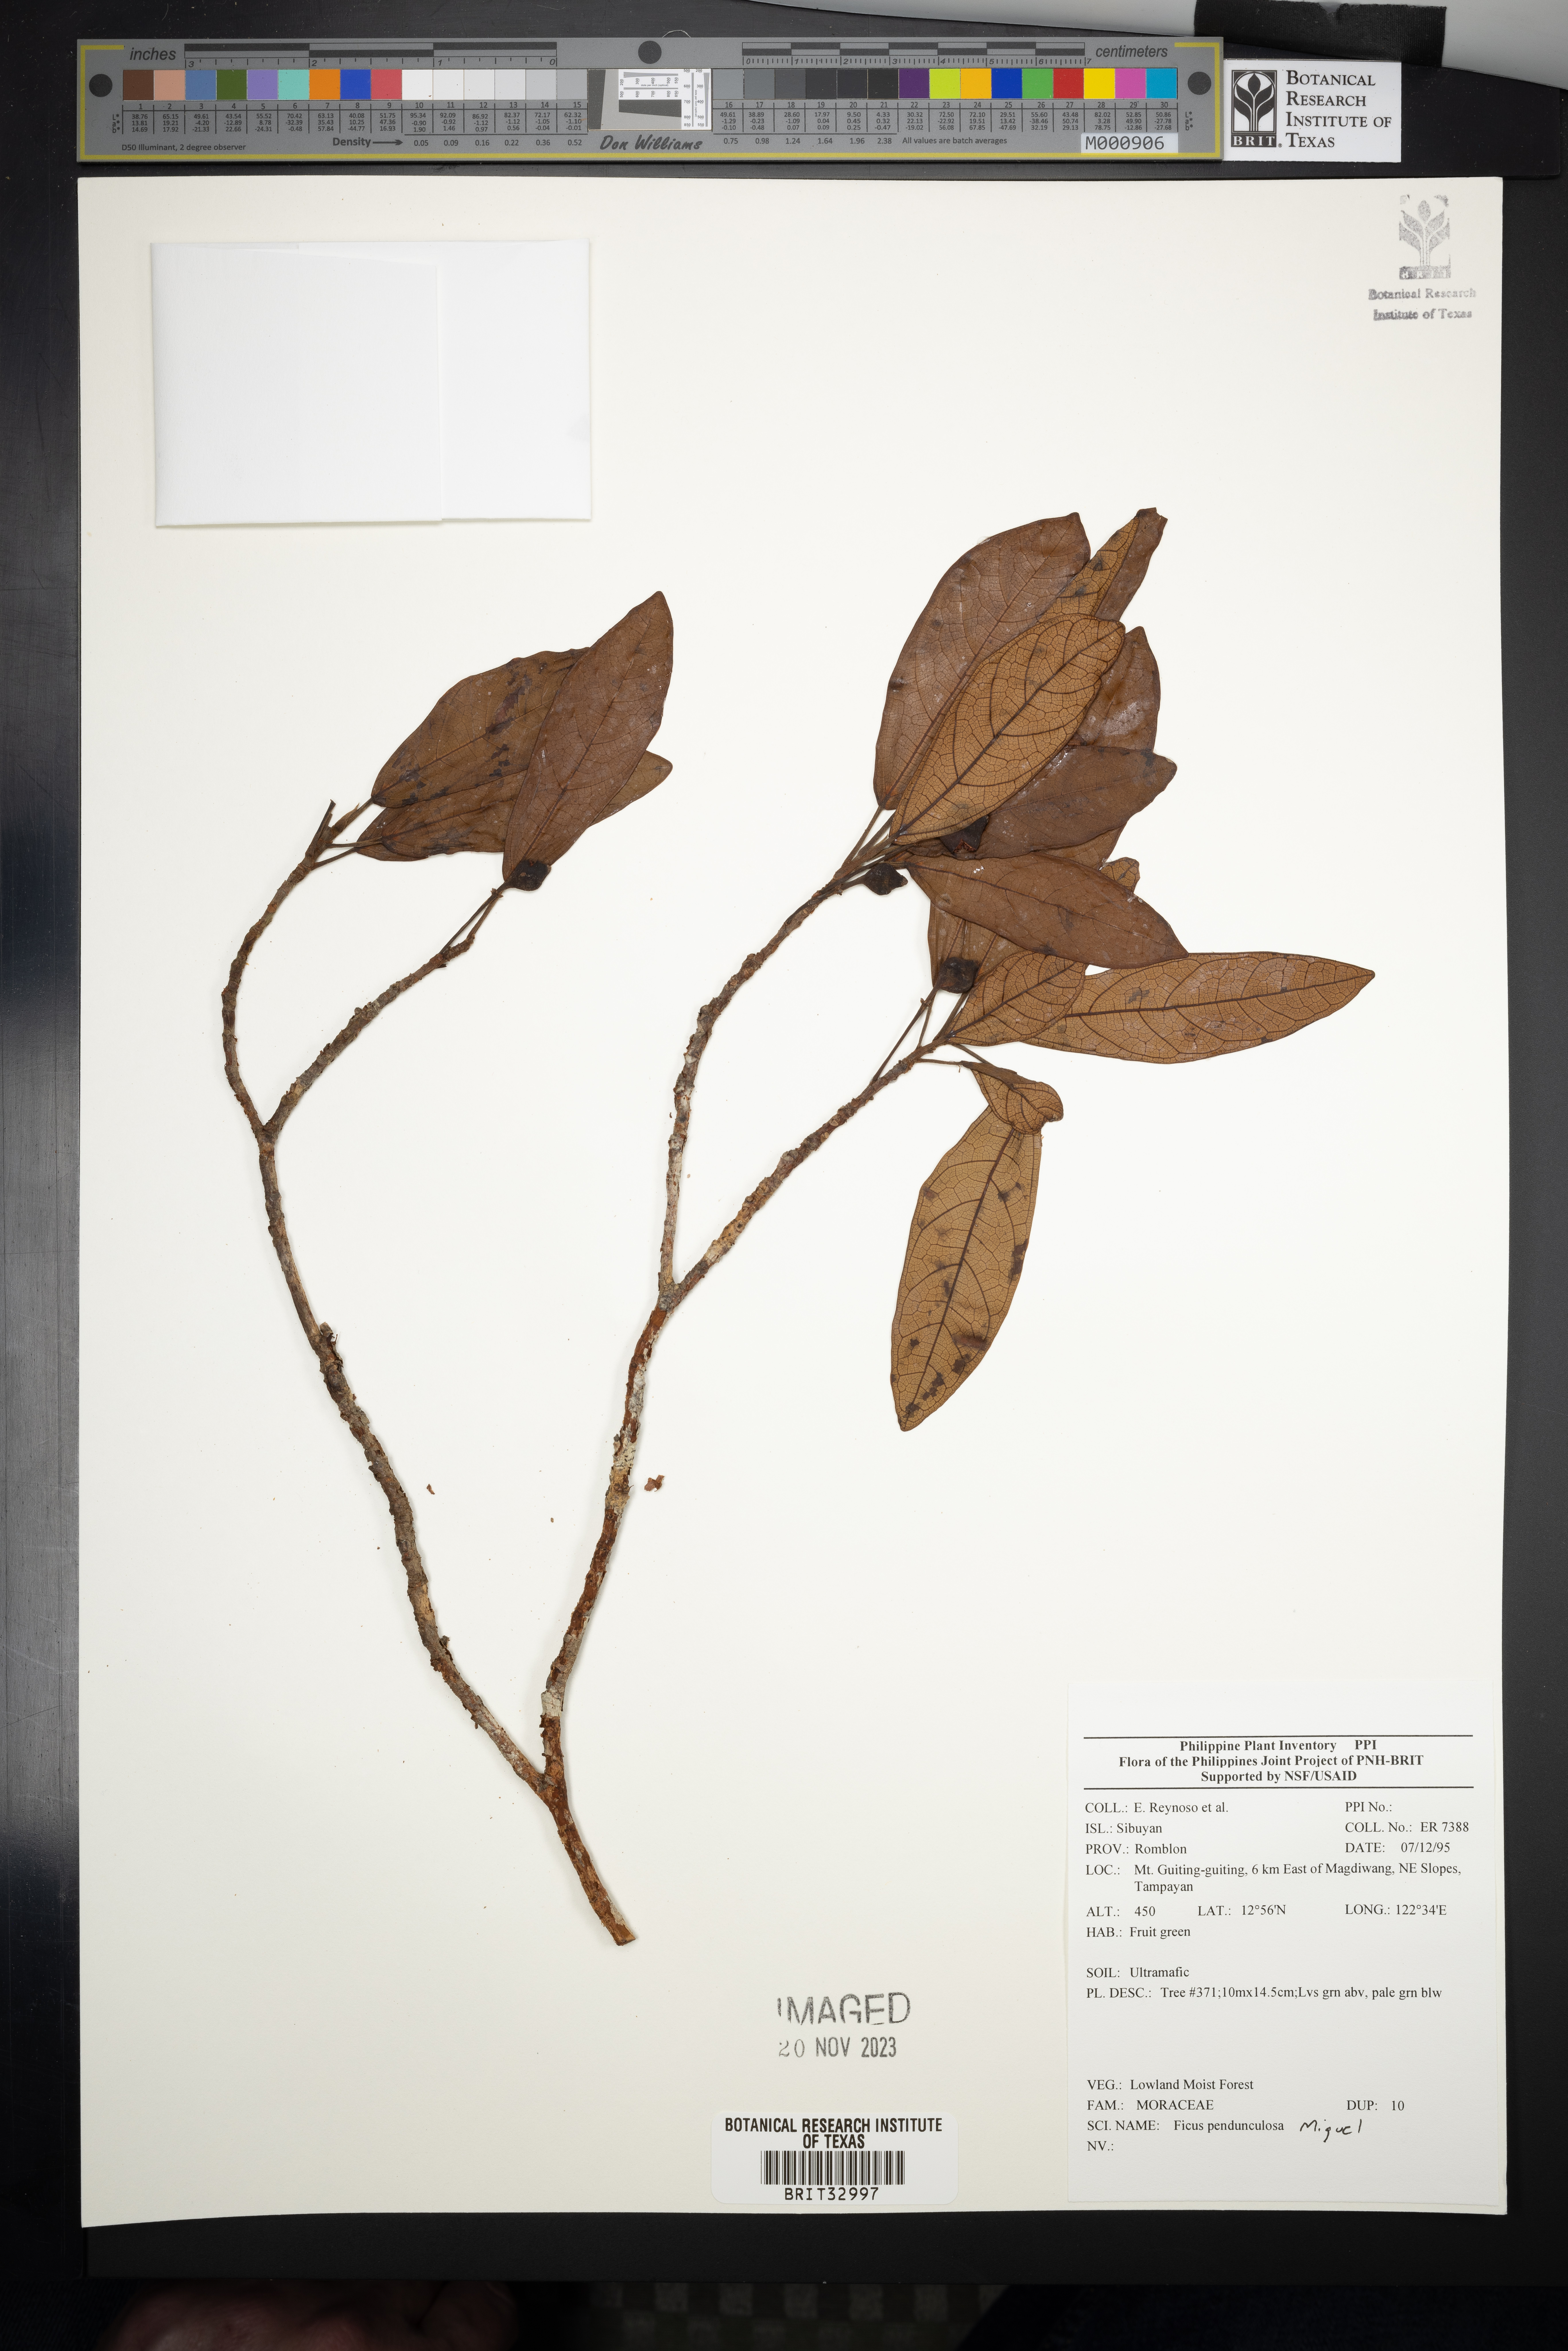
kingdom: Plantae
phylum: Tracheophyta
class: Magnoliopsida
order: Rosales
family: Moraceae
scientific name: Moraceae
